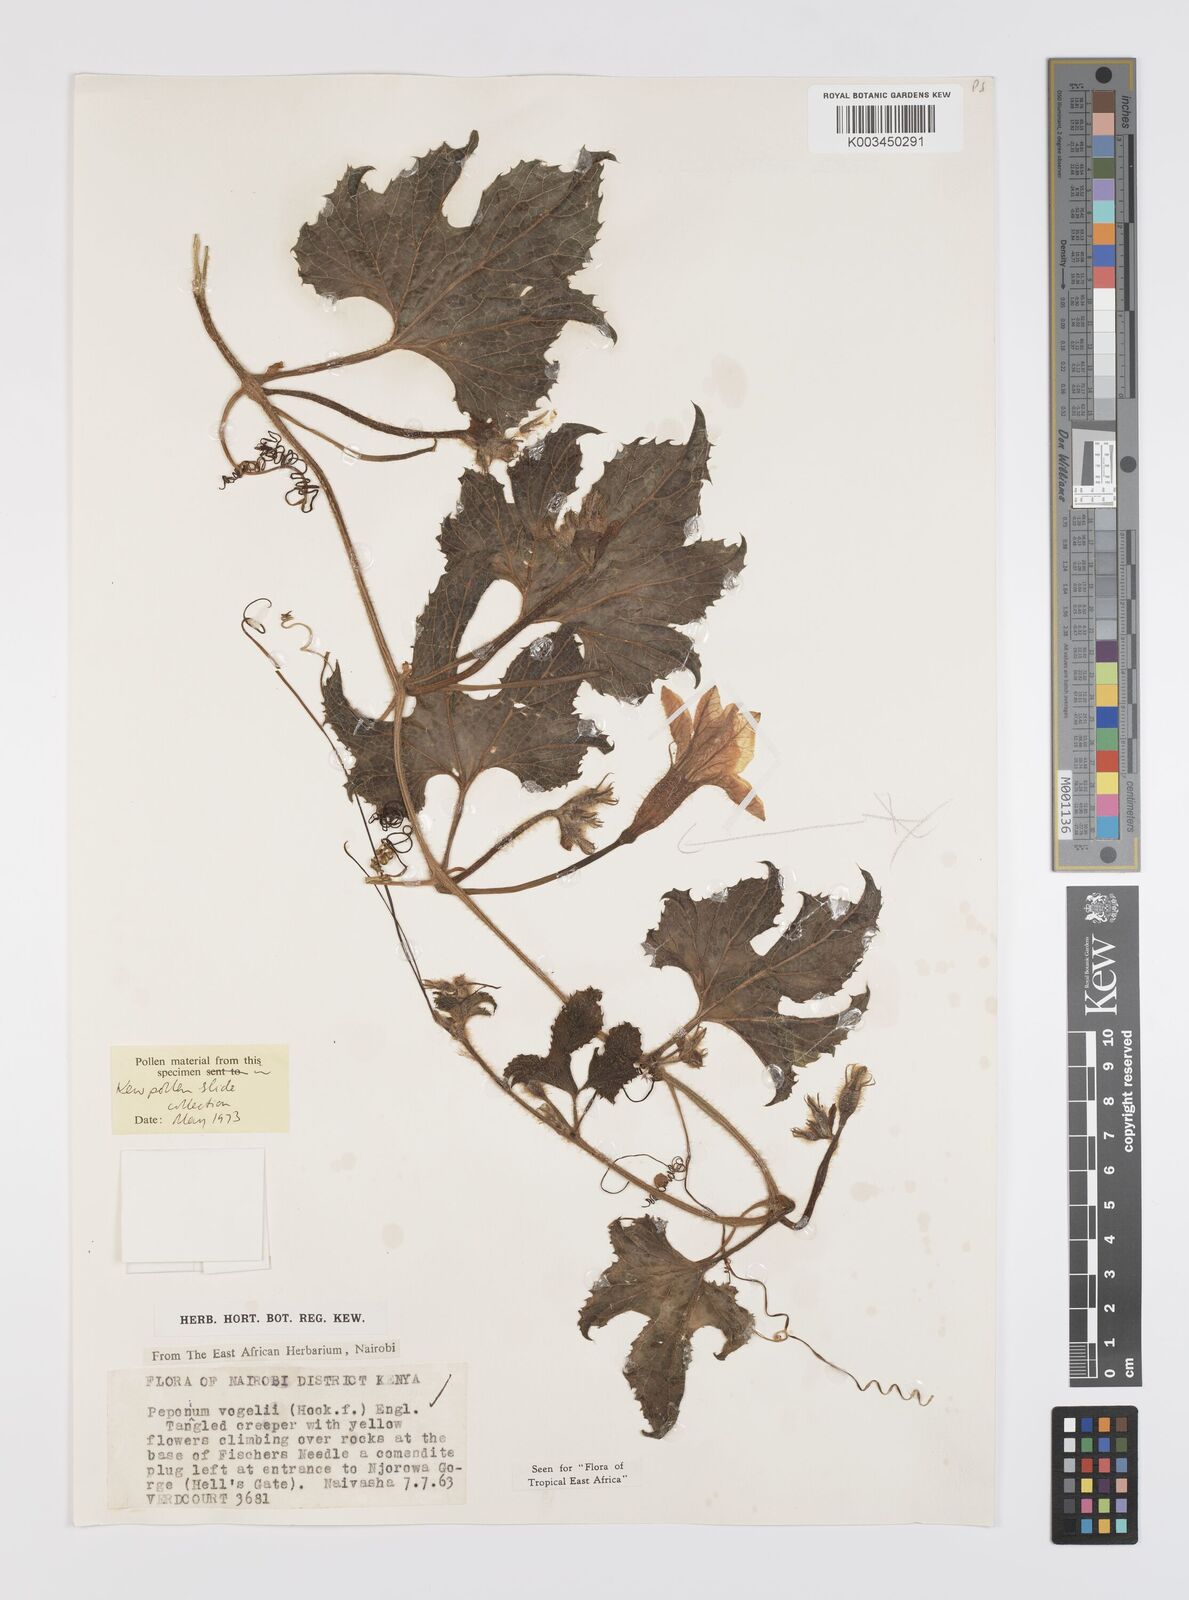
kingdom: Plantae
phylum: Tracheophyta
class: Magnoliopsida
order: Cucurbitales
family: Cucurbitaceae
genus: Peponium
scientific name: Peponium vogelii
